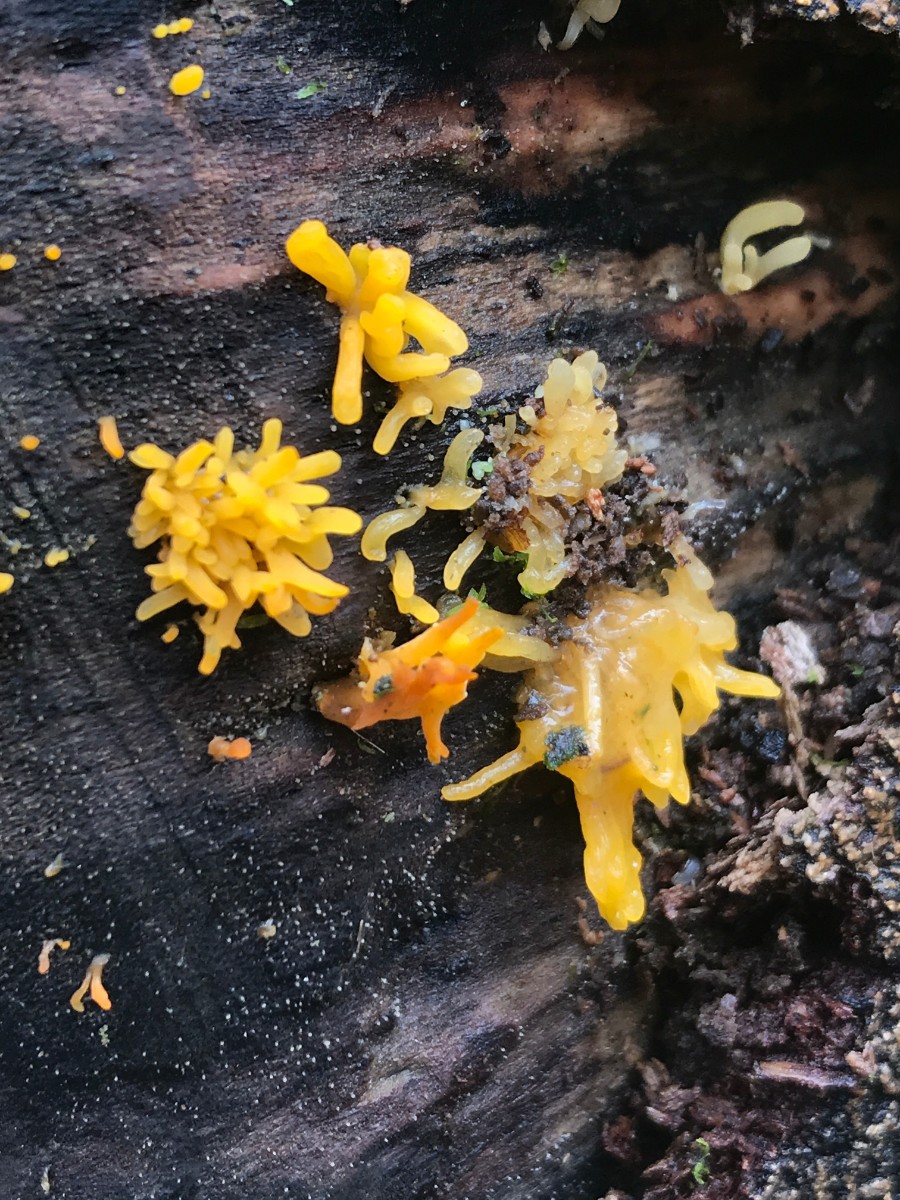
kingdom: Fungi
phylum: Basidiomycota
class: Dacrymycetes
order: Dacrymycetales
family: Dacrymycetaceae
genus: Calocera
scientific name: Calocera cornea
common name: liden guldgaffel
